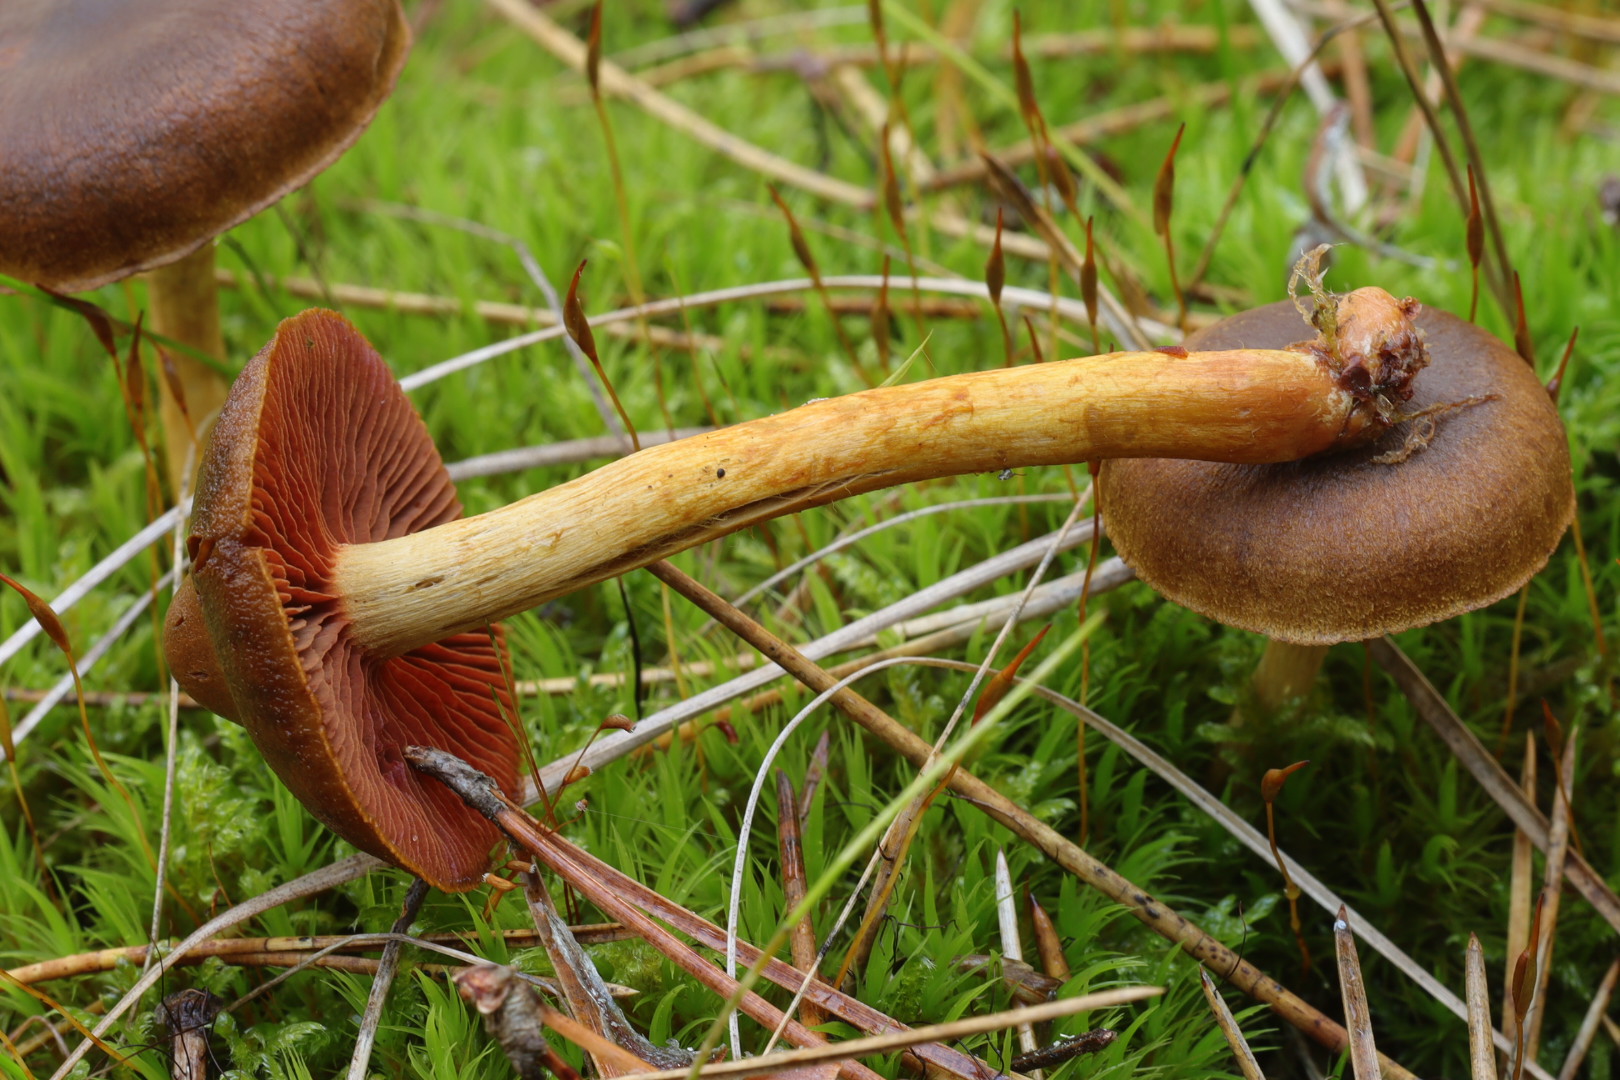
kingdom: Fungi
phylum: Basidiomycota
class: Agaricomycetes
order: Agaricales
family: Cortinariaceae
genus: Cortinarius
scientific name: Cortinarius
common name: cinnoberbladet slørhat
